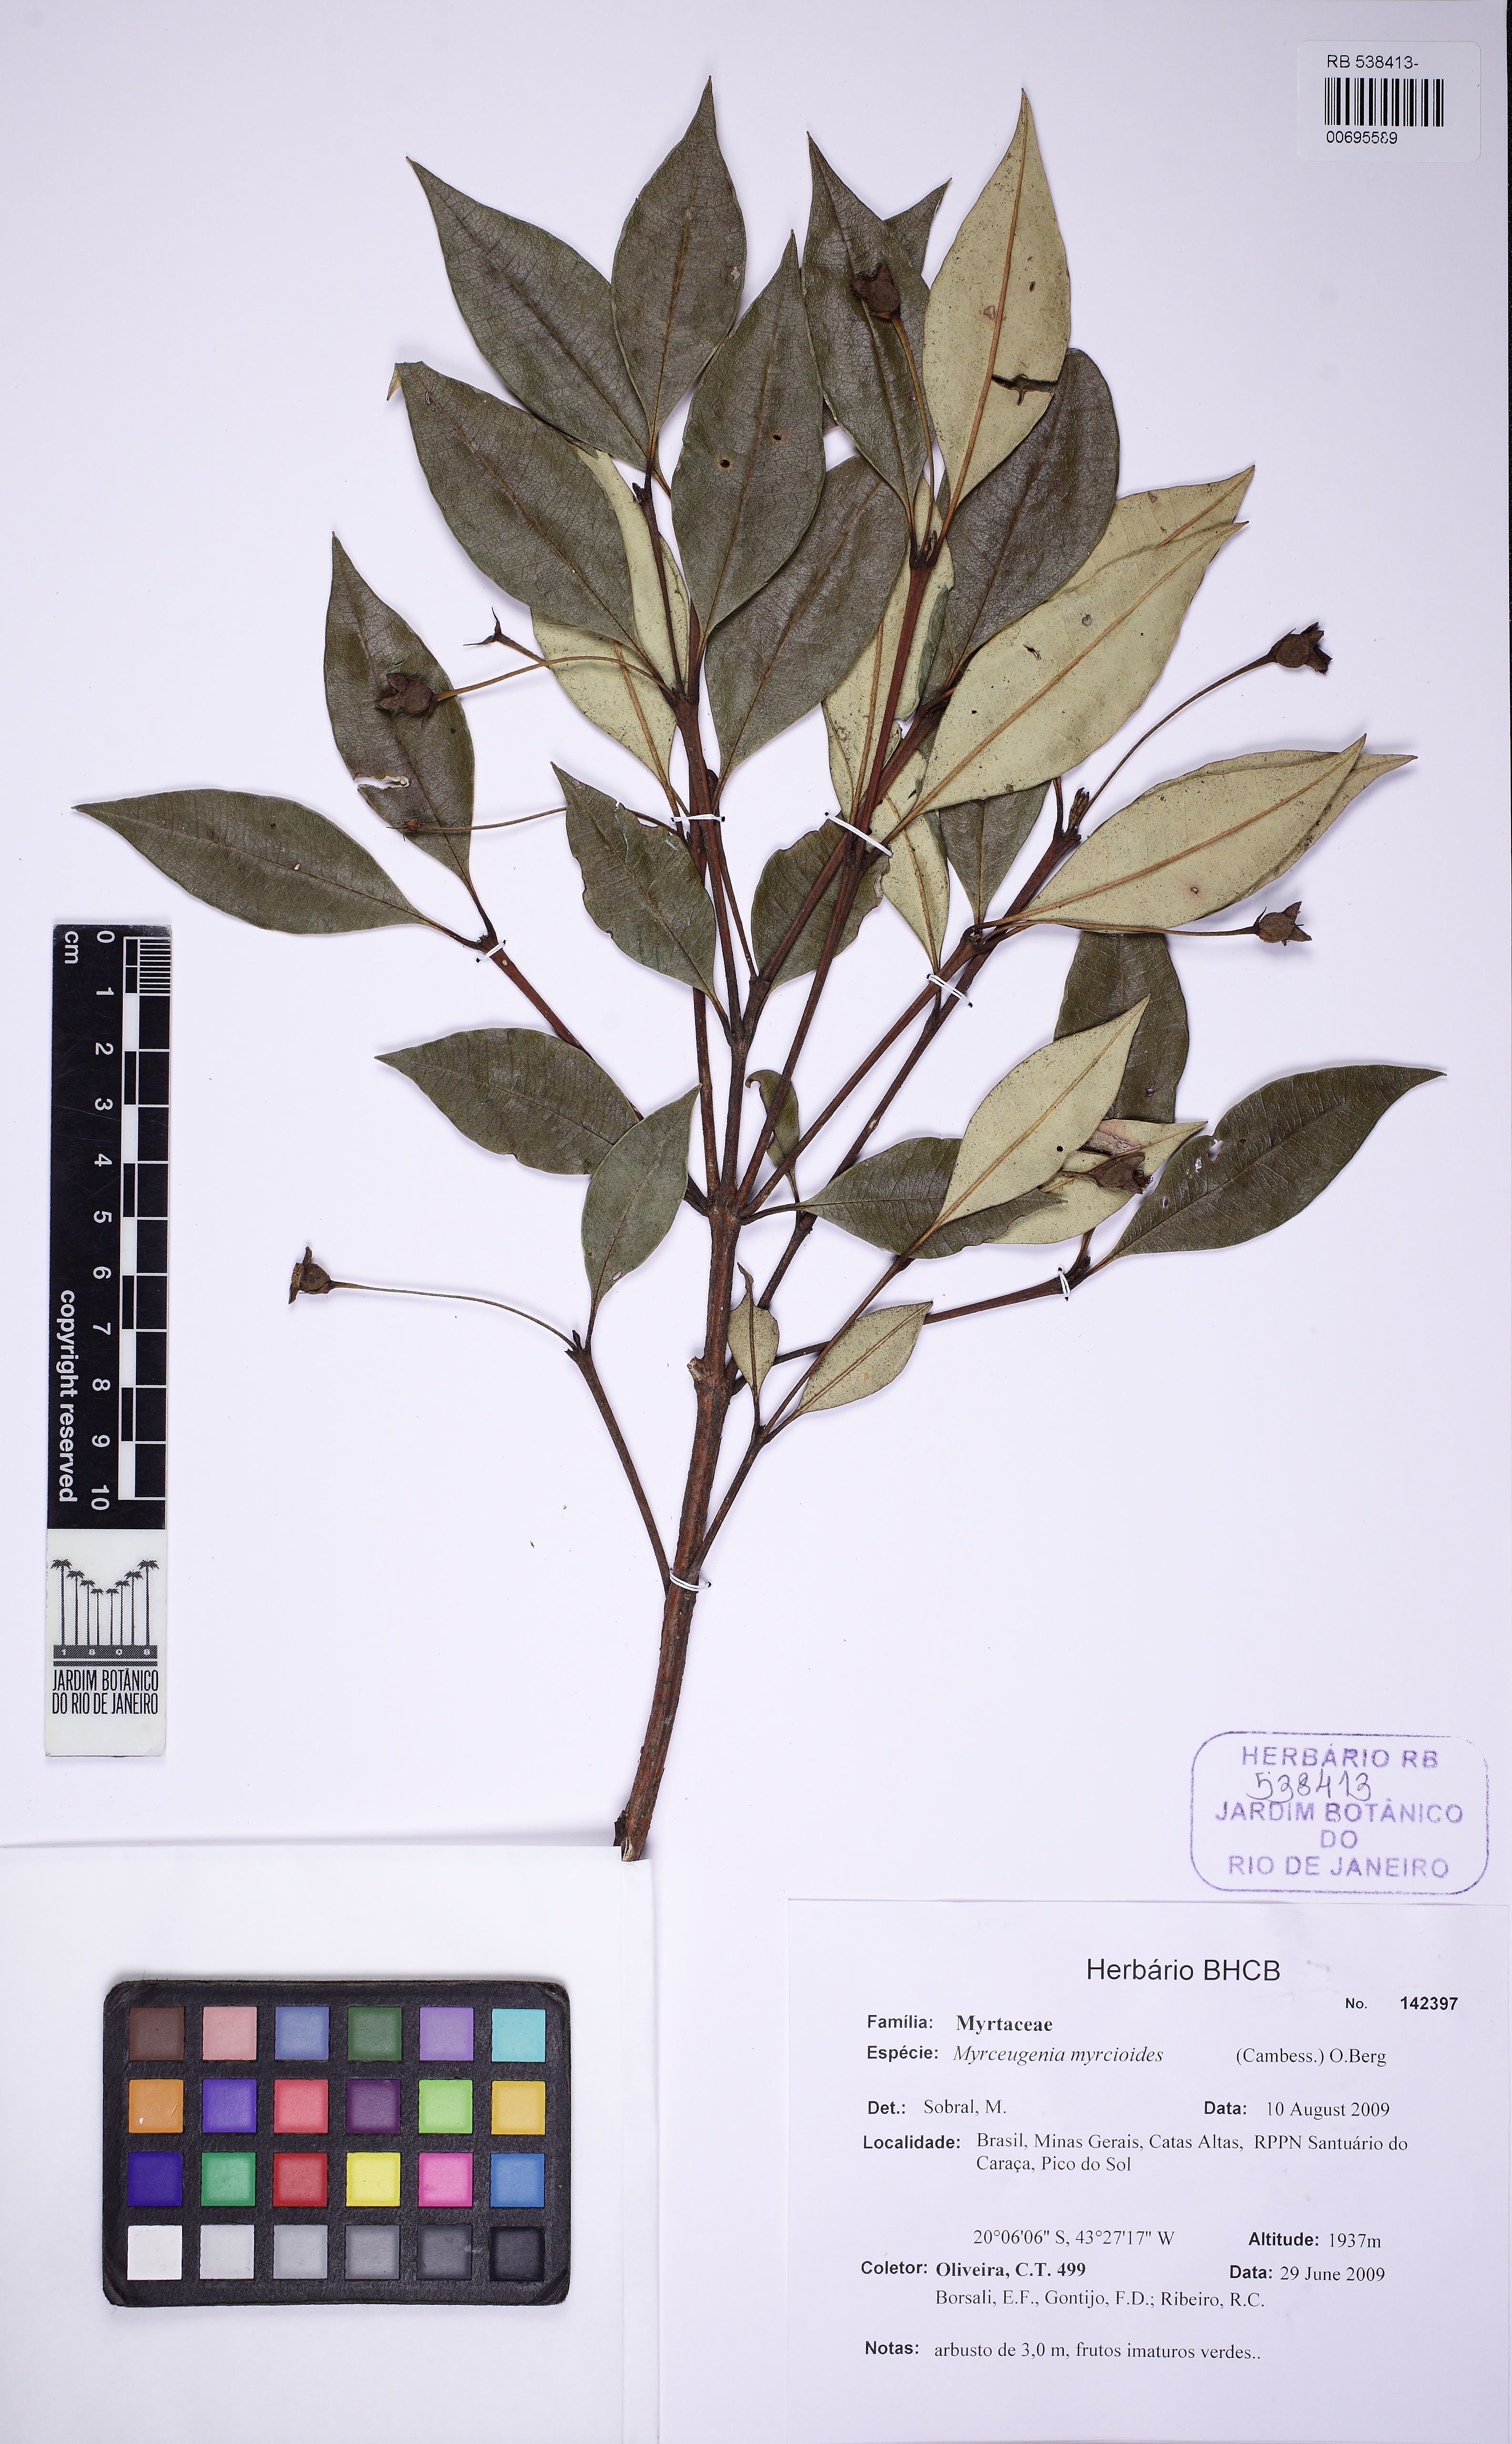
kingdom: Plantae
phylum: Tracheophyta
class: Magnoliopsida
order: Myrtales
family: Myrtaceae
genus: Myrceugenia
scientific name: Myrceugenia franciscensis
